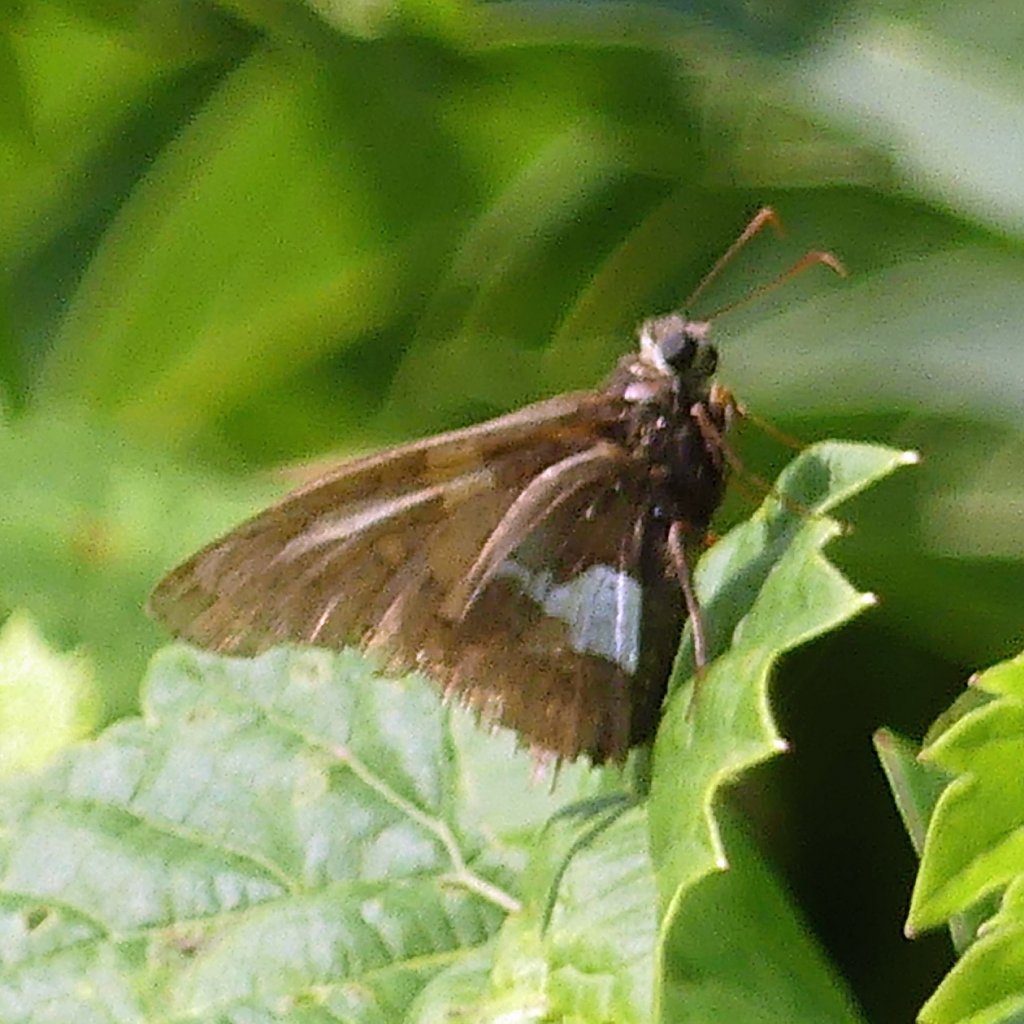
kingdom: Animalia
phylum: Arthropoda
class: Insecta
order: Lepidoptera
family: Hesperiidae
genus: Epargyreus
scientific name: Epargyreus clarus
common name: Silver-spotted Skipper
